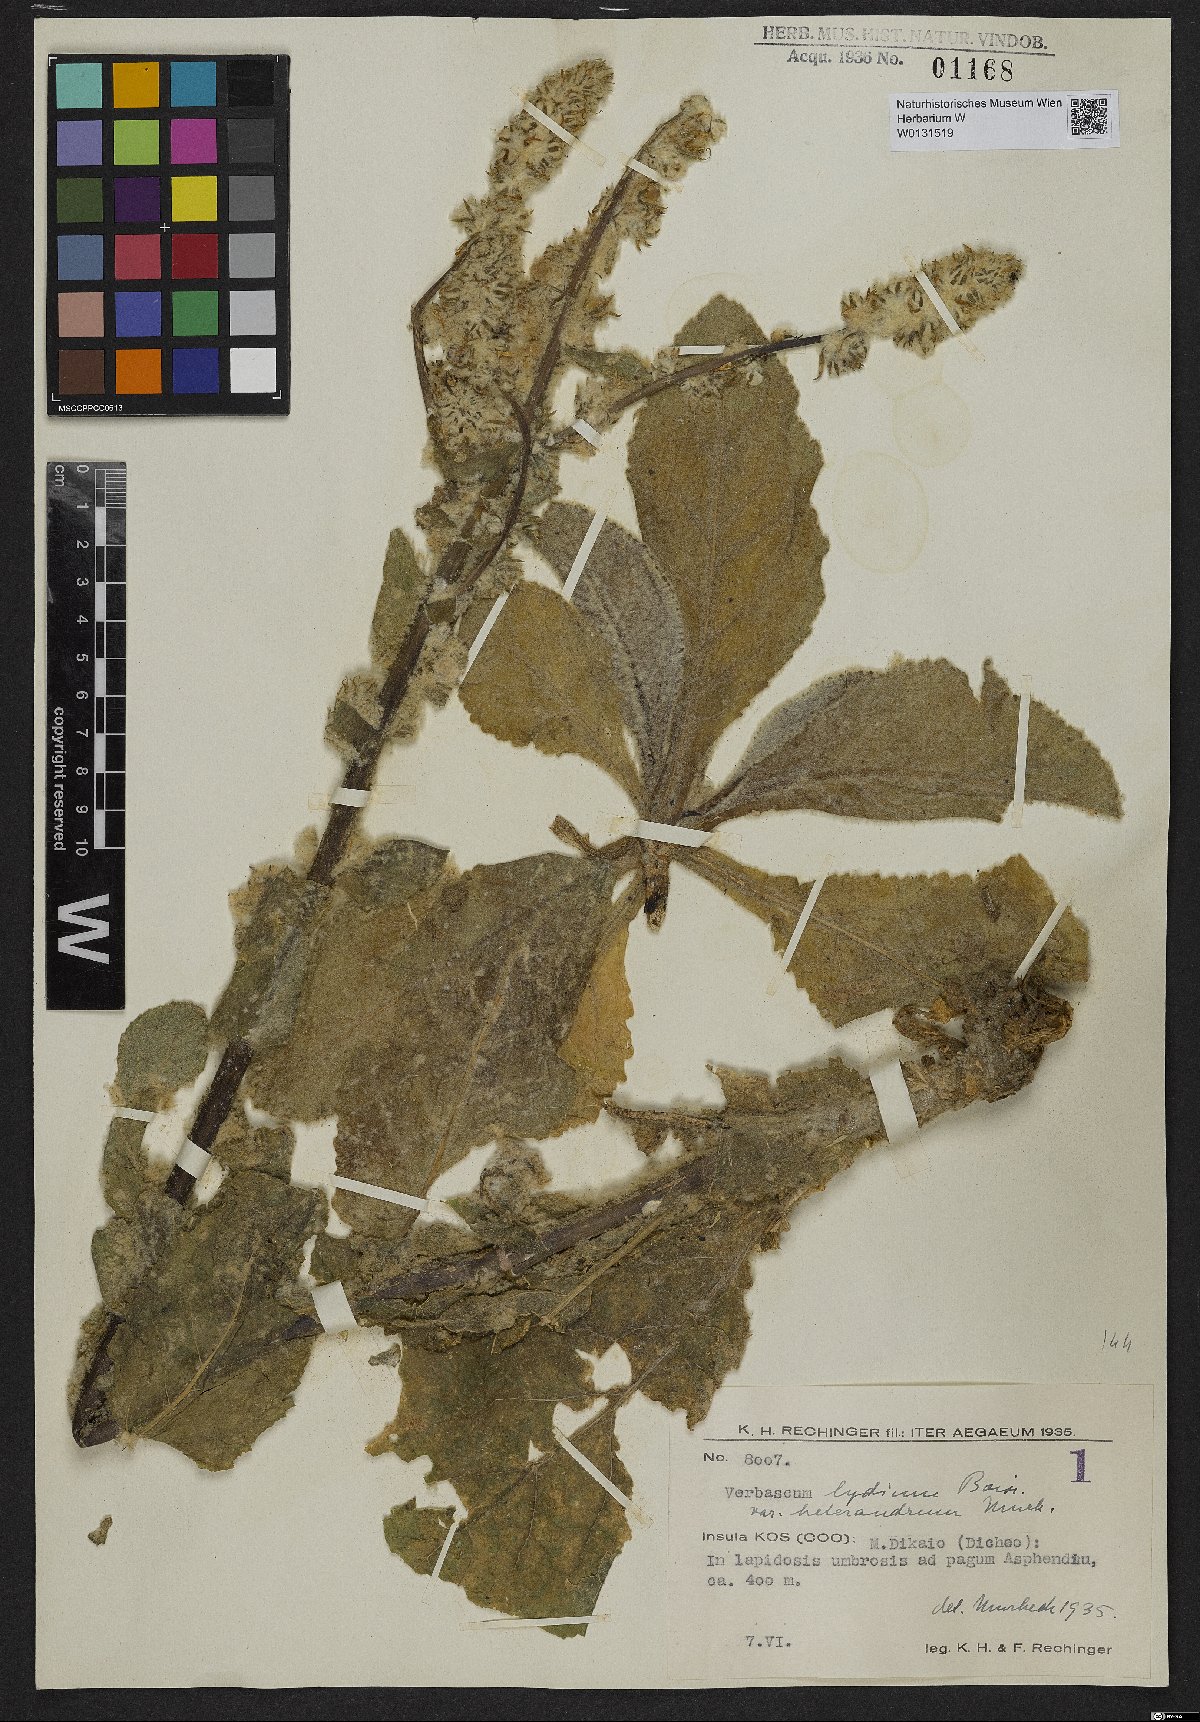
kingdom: Plantae
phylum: Tracheophyta
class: Magnoliopsida
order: Lamiales
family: Scrophulariaceae
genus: Verbascum
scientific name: Verbascum lydium
